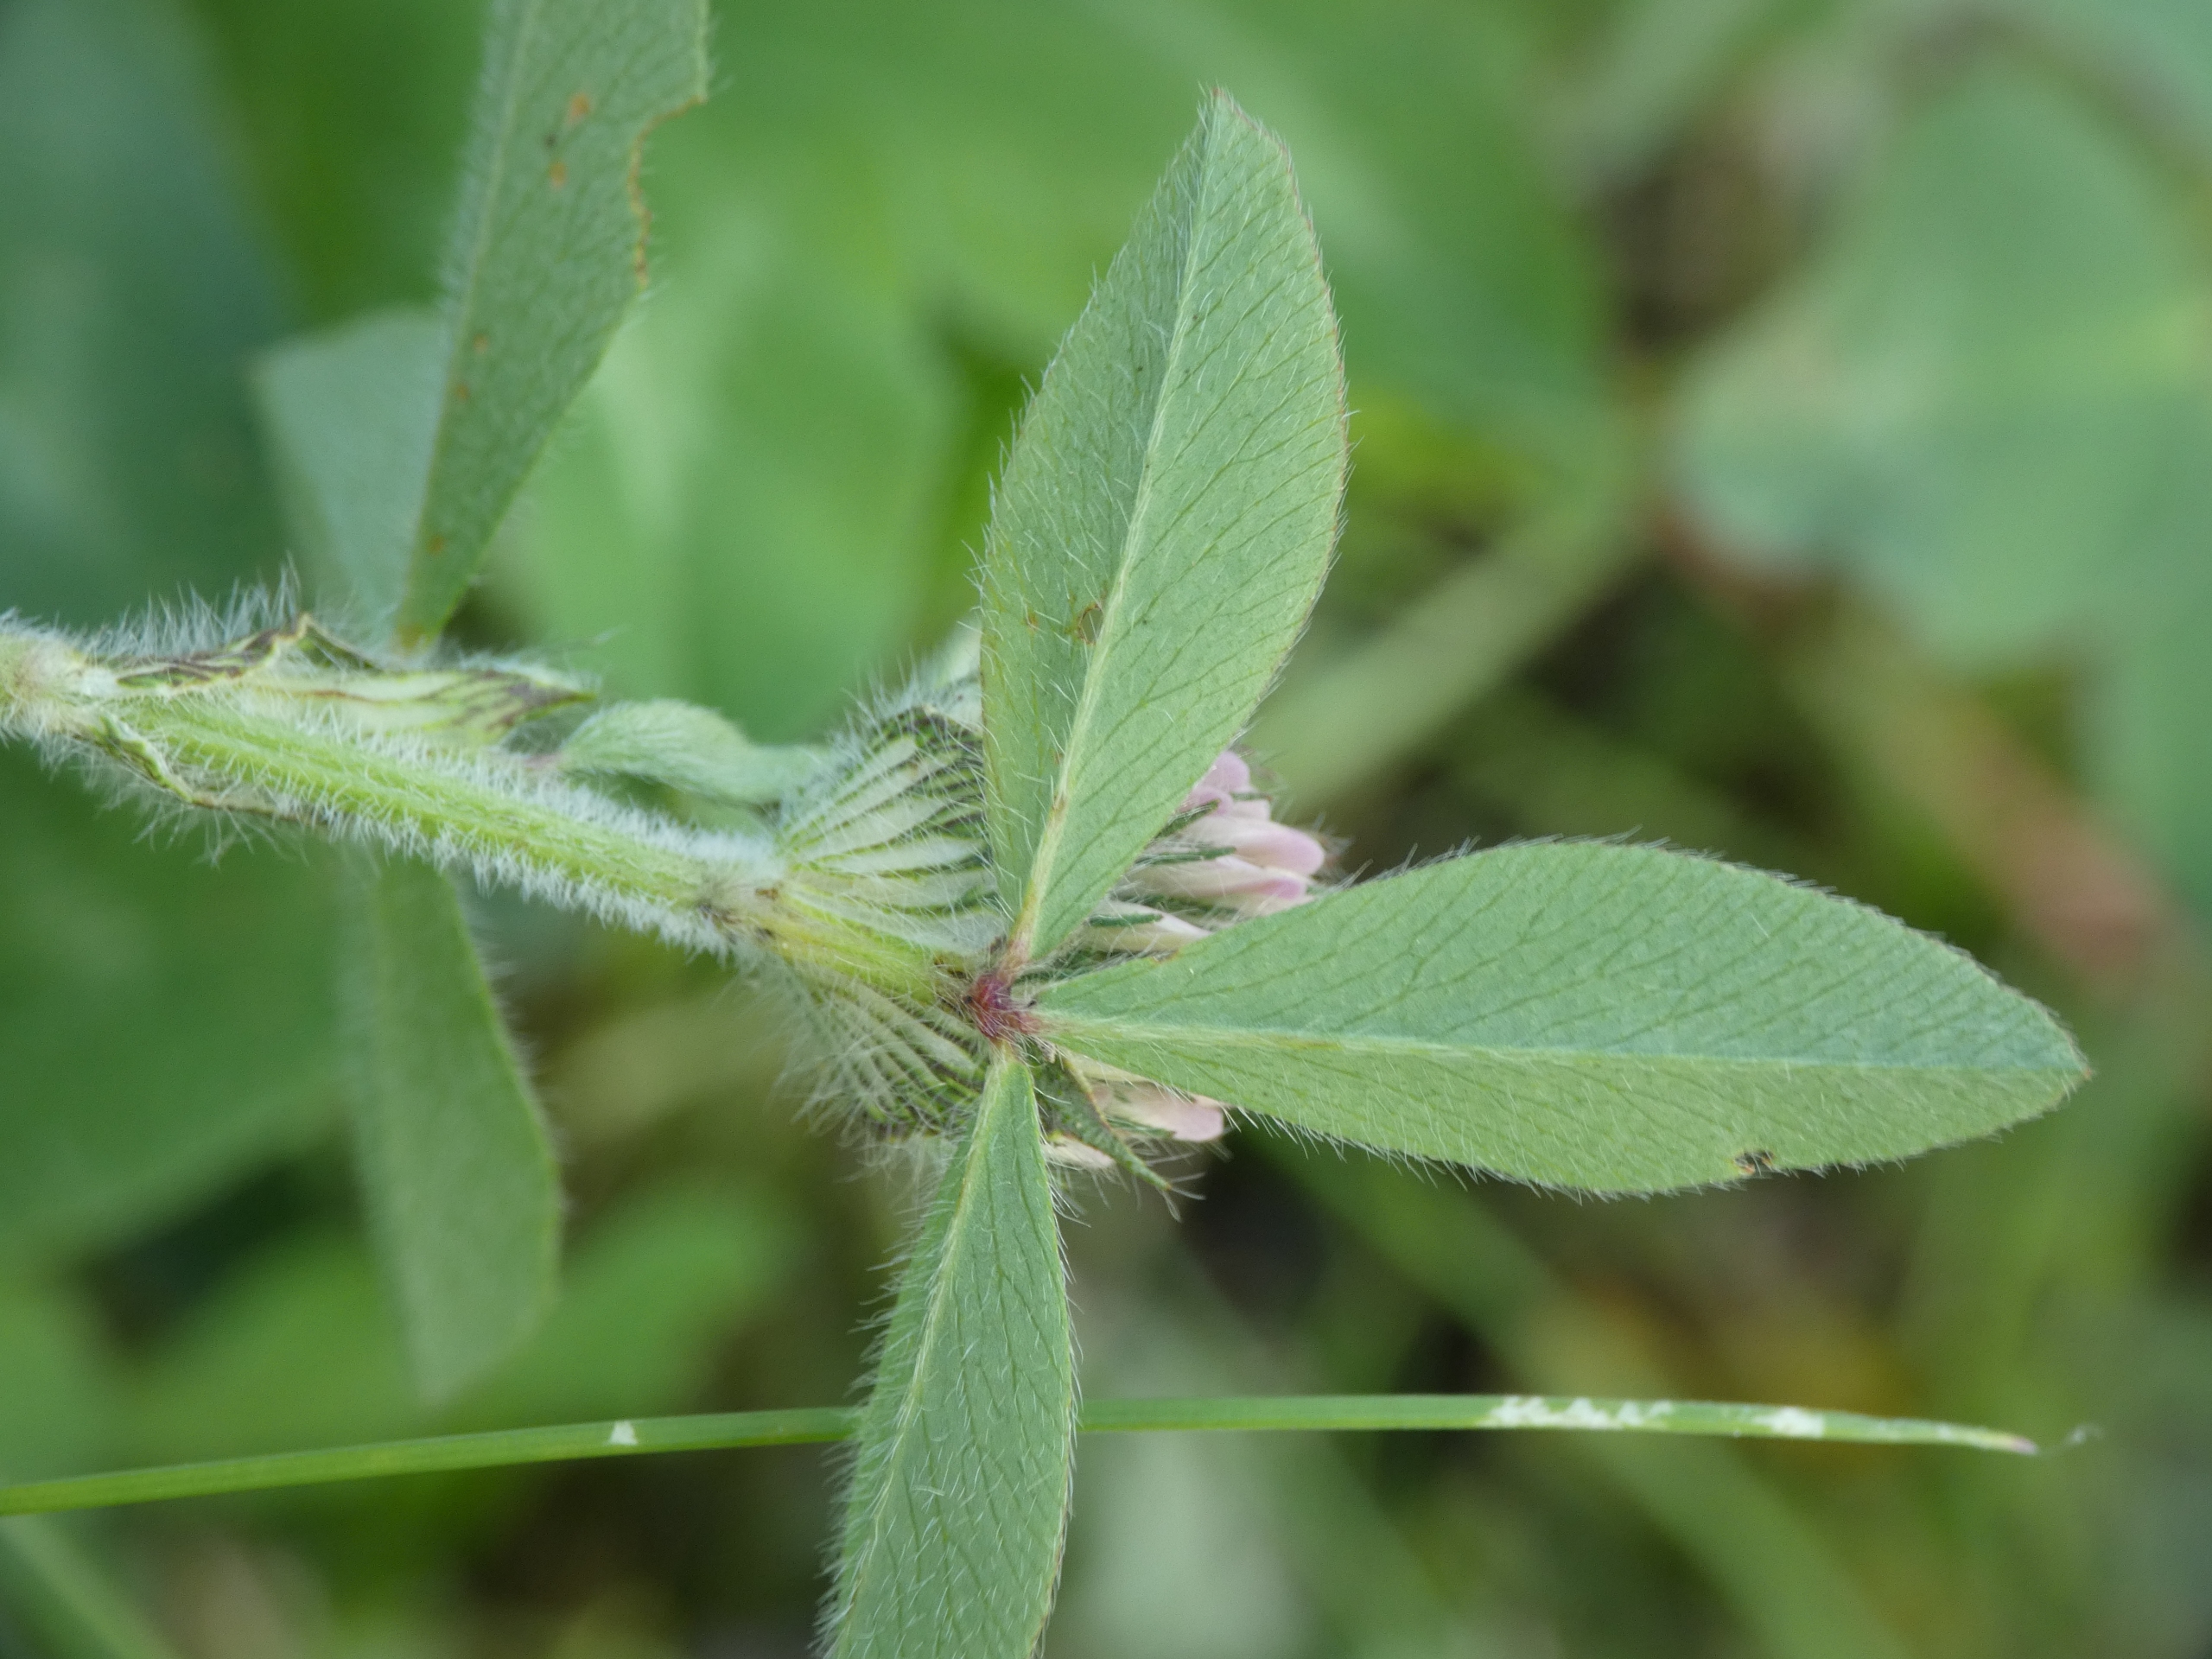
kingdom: Plantae
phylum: Tracheophyta
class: Magnoliopsida
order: Fabales
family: Fabaceae
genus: Trifolium
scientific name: Trifolium pratense
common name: Rød-kløver
